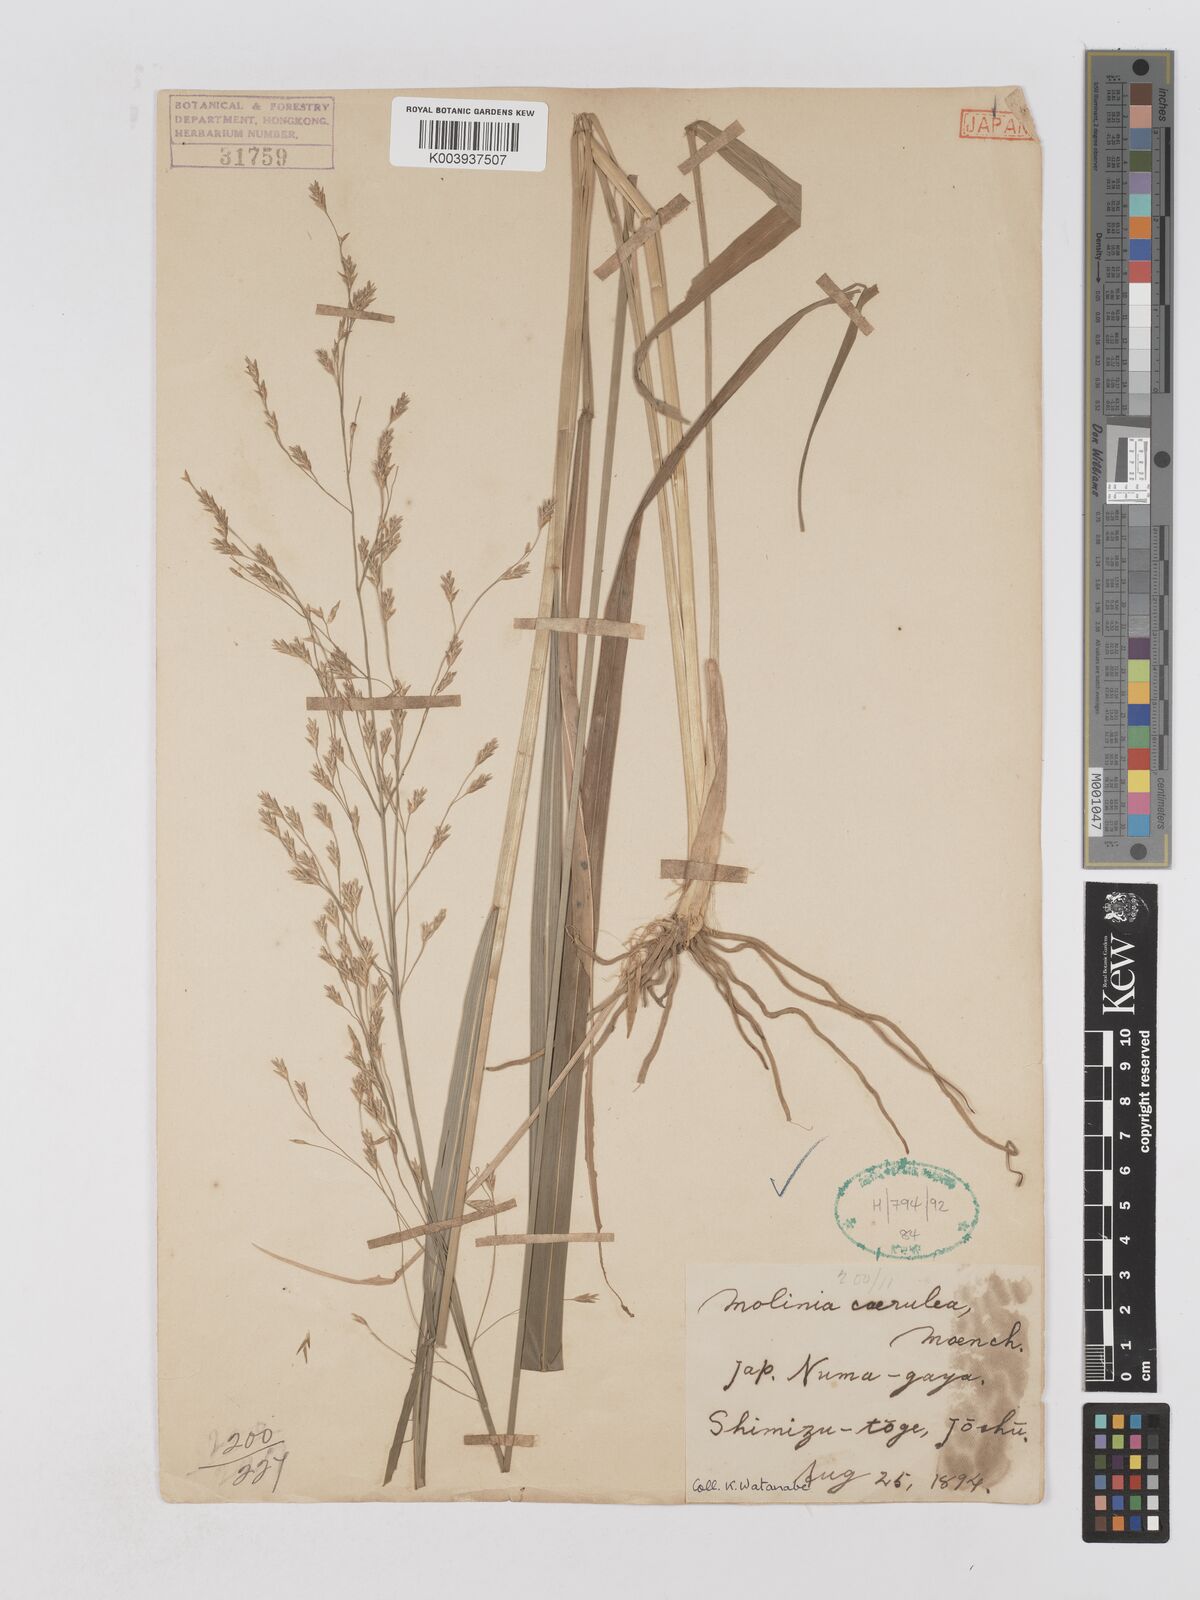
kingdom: Plantae
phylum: Tracheophyta
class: Liliopsida
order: Poales
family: Poaceae
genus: Moliniopsis
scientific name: Moliniopsis japonica
